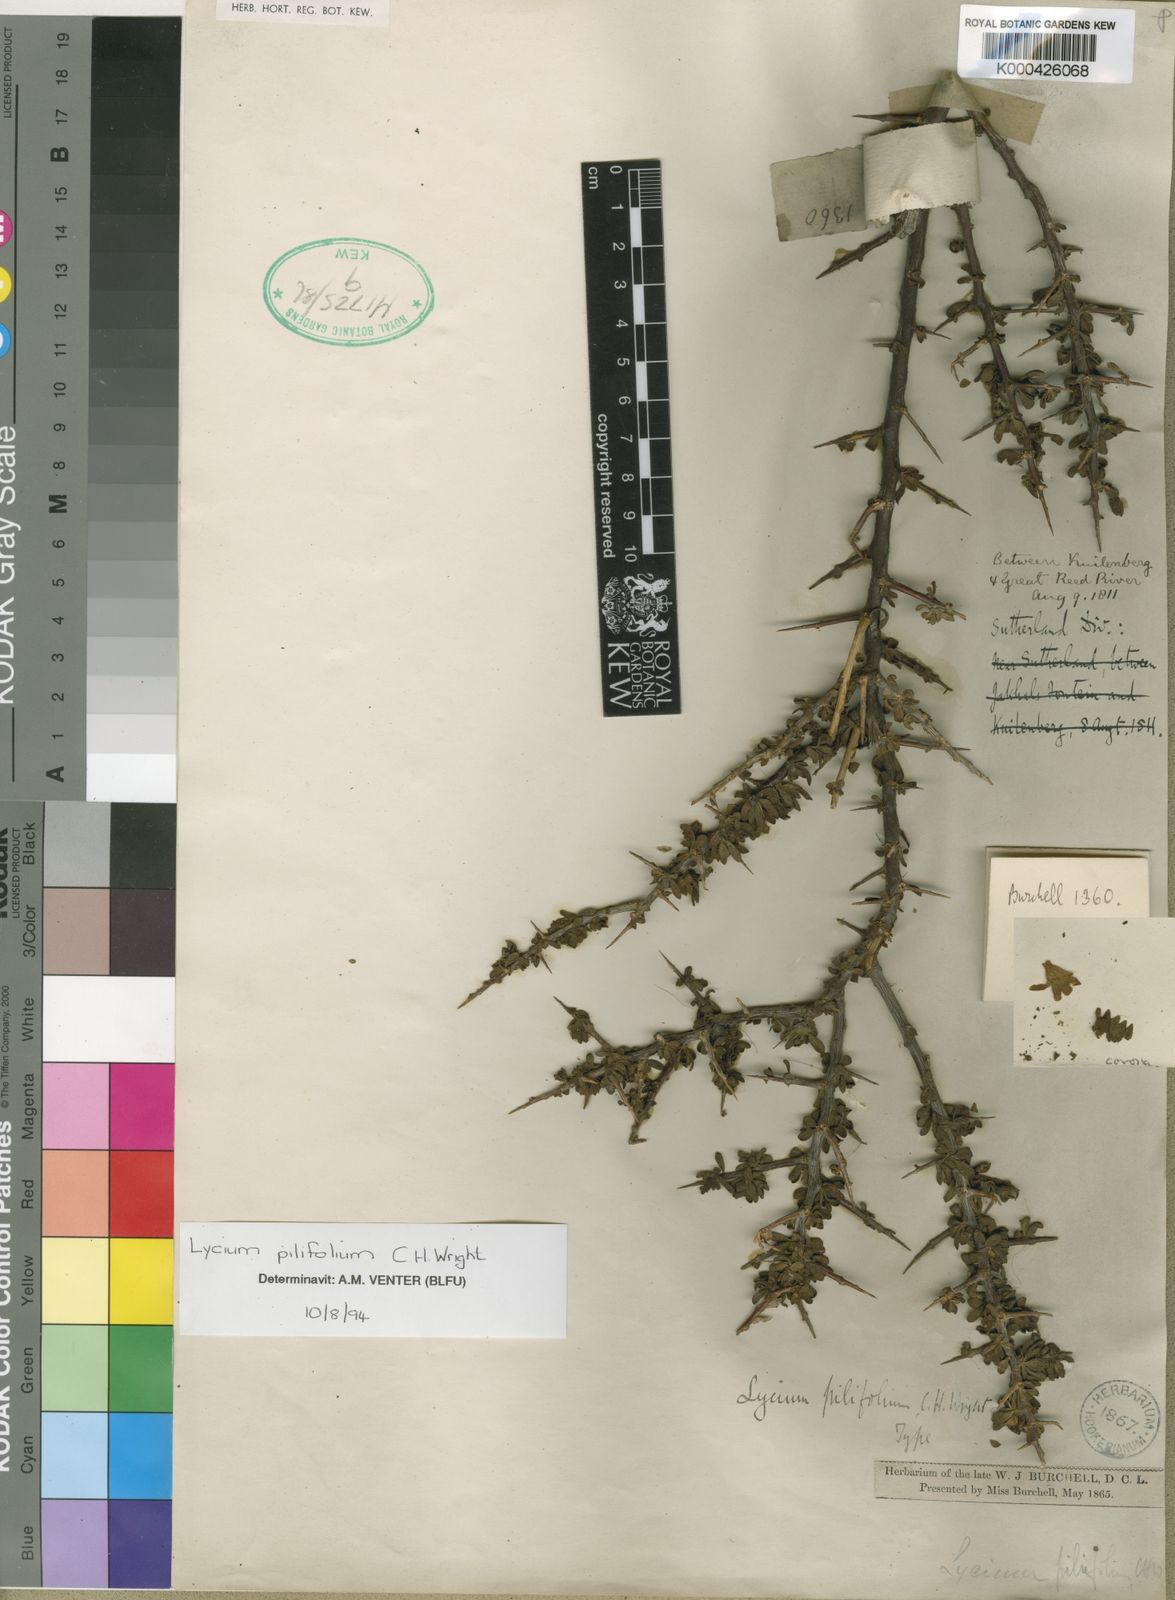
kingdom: Plantae
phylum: Tracheophyta
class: Magnoliopsida
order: Solanales
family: Solanaceae
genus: Lycium
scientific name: Lycium pilifolium
